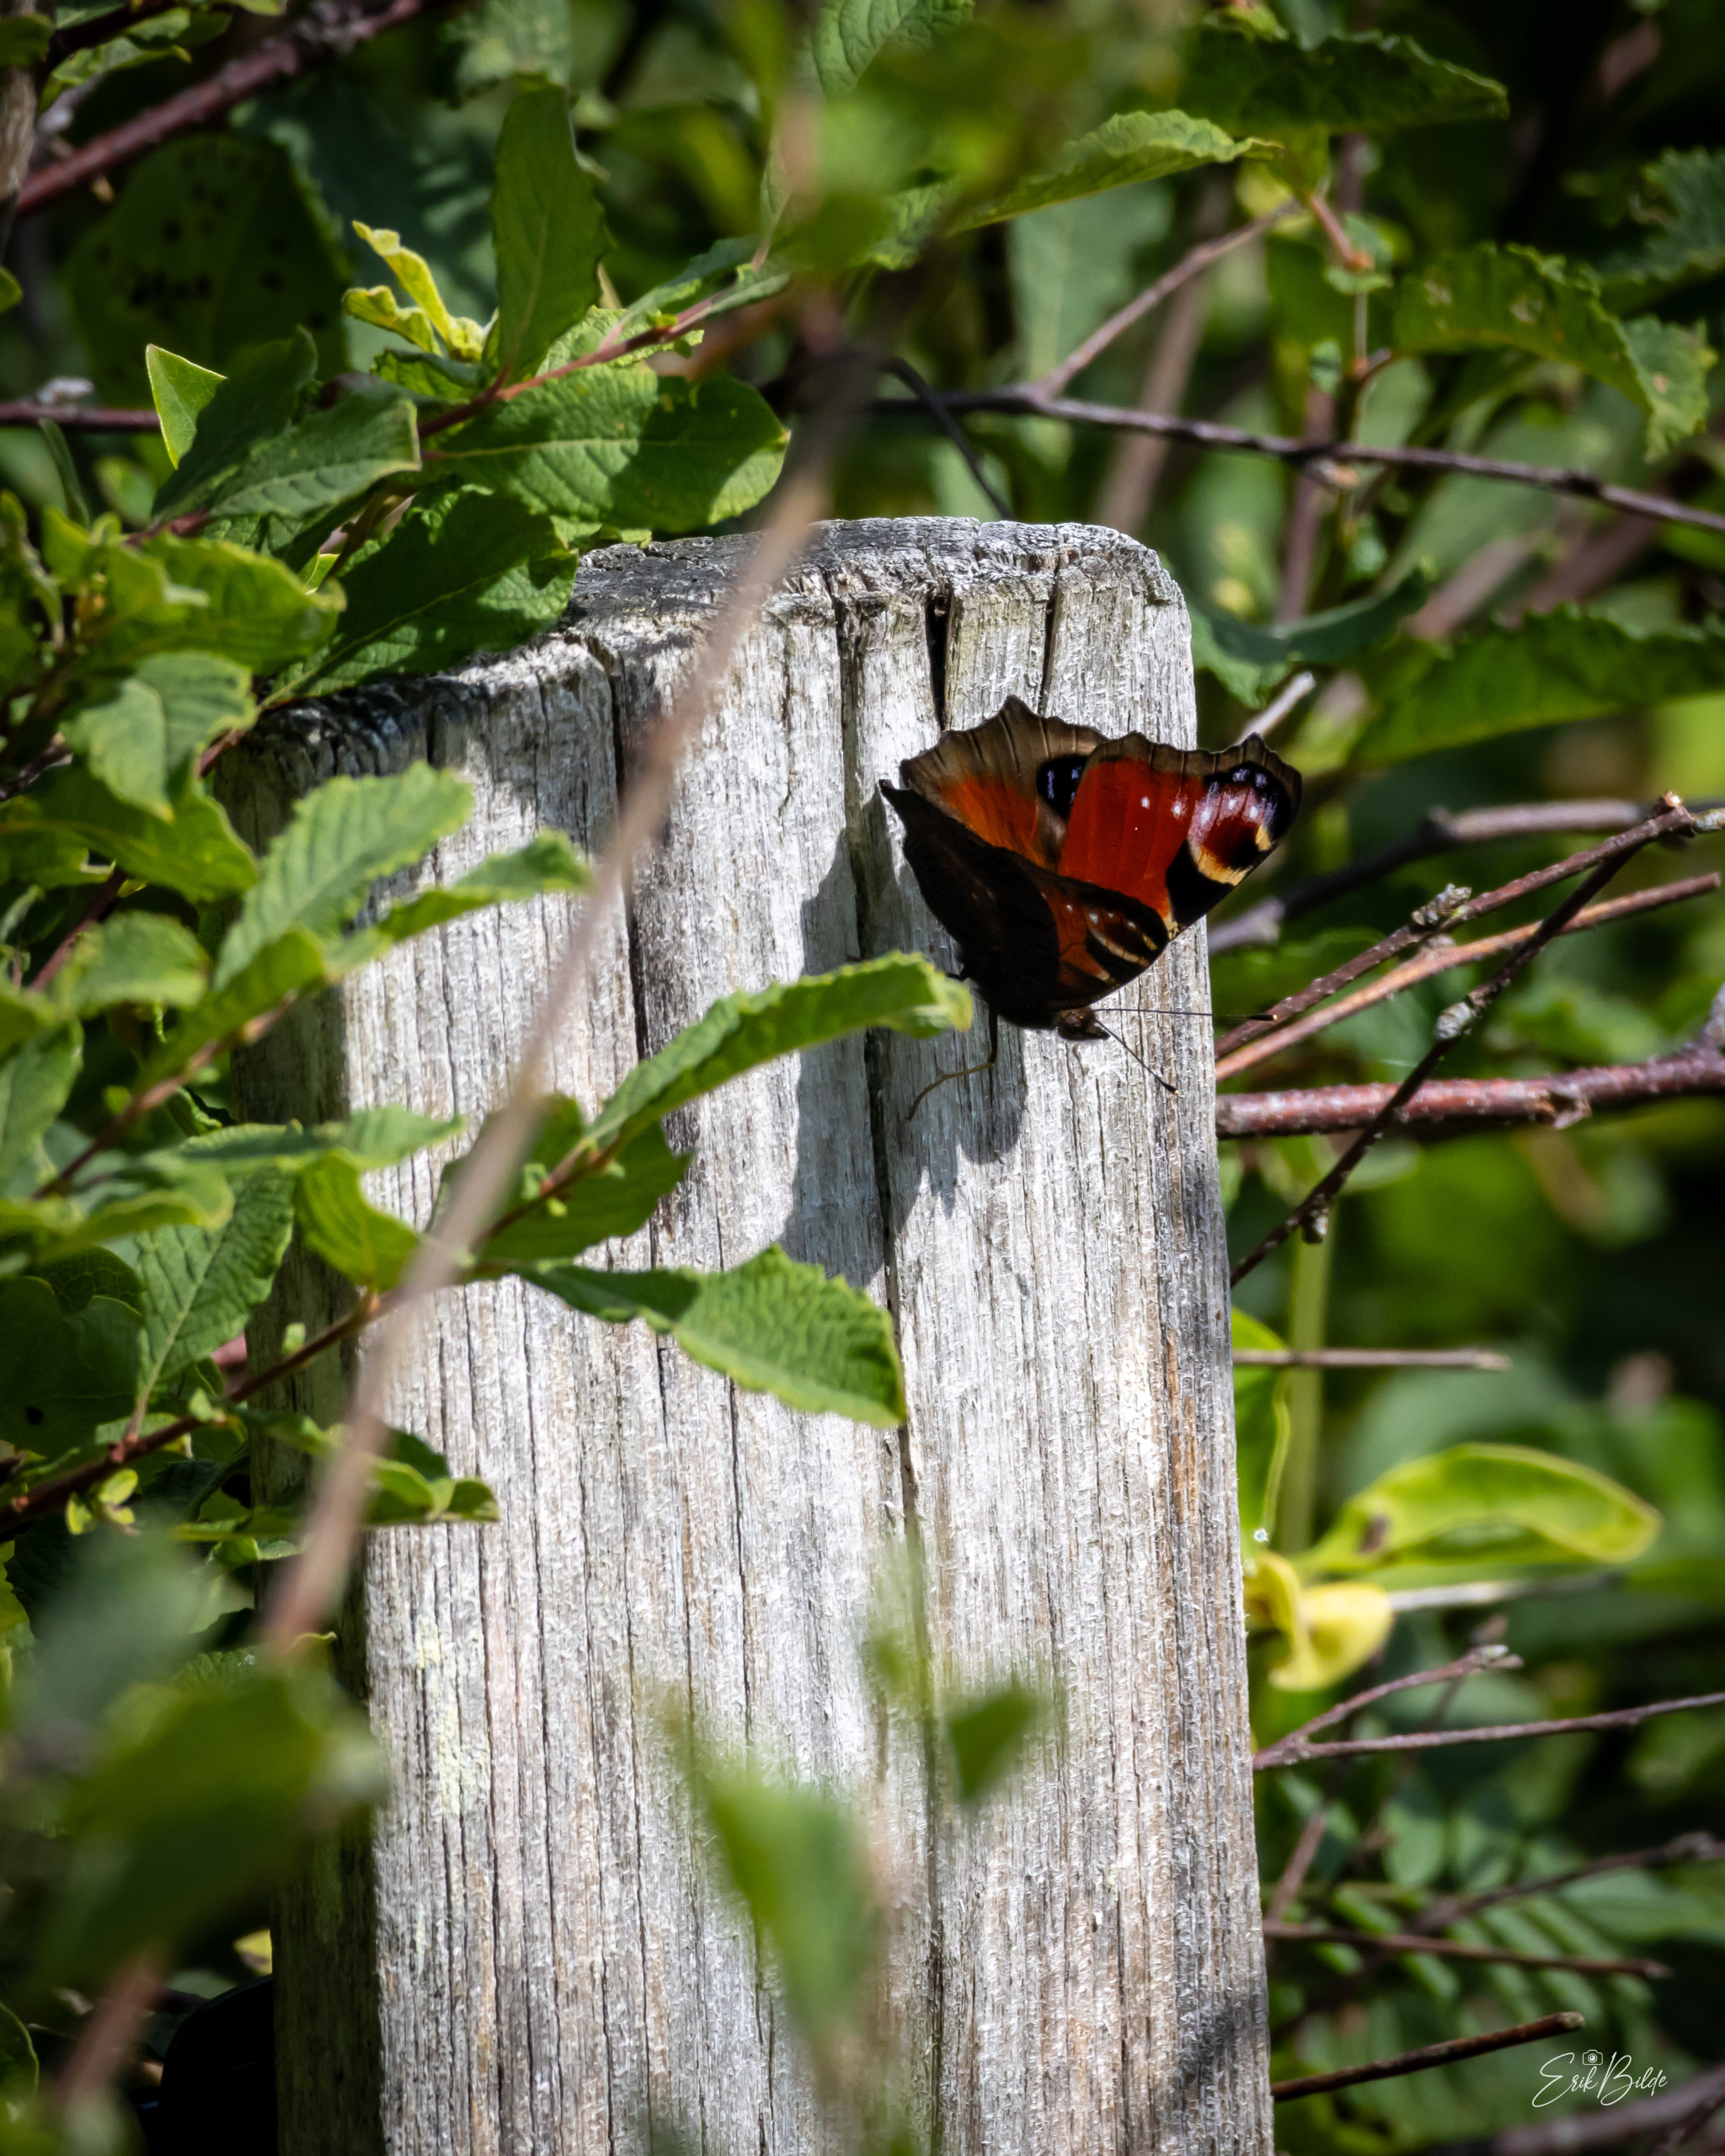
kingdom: Animalia
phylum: Arthropoda
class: Insecta
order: Lepidoptera
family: Nymphalidae
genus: Aglais
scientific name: Aglais io
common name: Dagpåfugleøje
